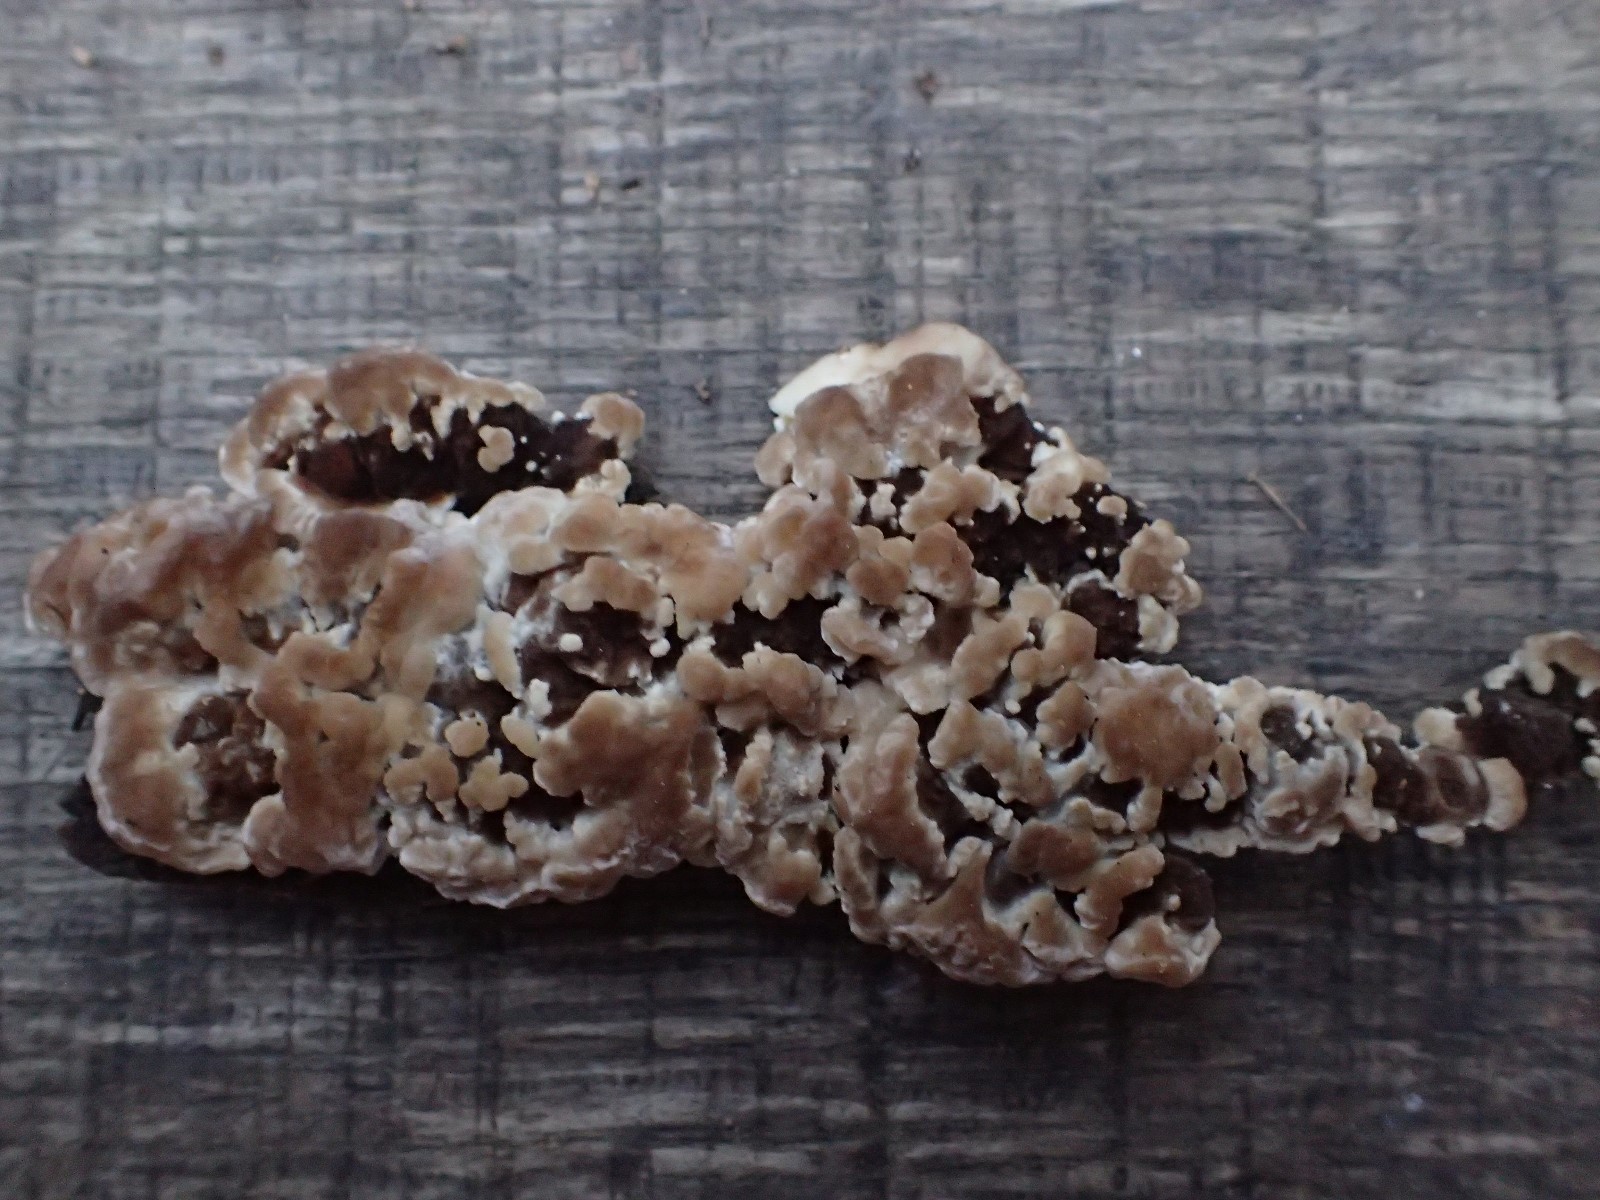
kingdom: Fungi
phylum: Basidiomycota
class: Agaricomycetes
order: Polyporales
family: Meripilaceae
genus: Rigidoporus
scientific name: Rigidoporus sanguinolentus
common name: blod-skorpeporesvamp
